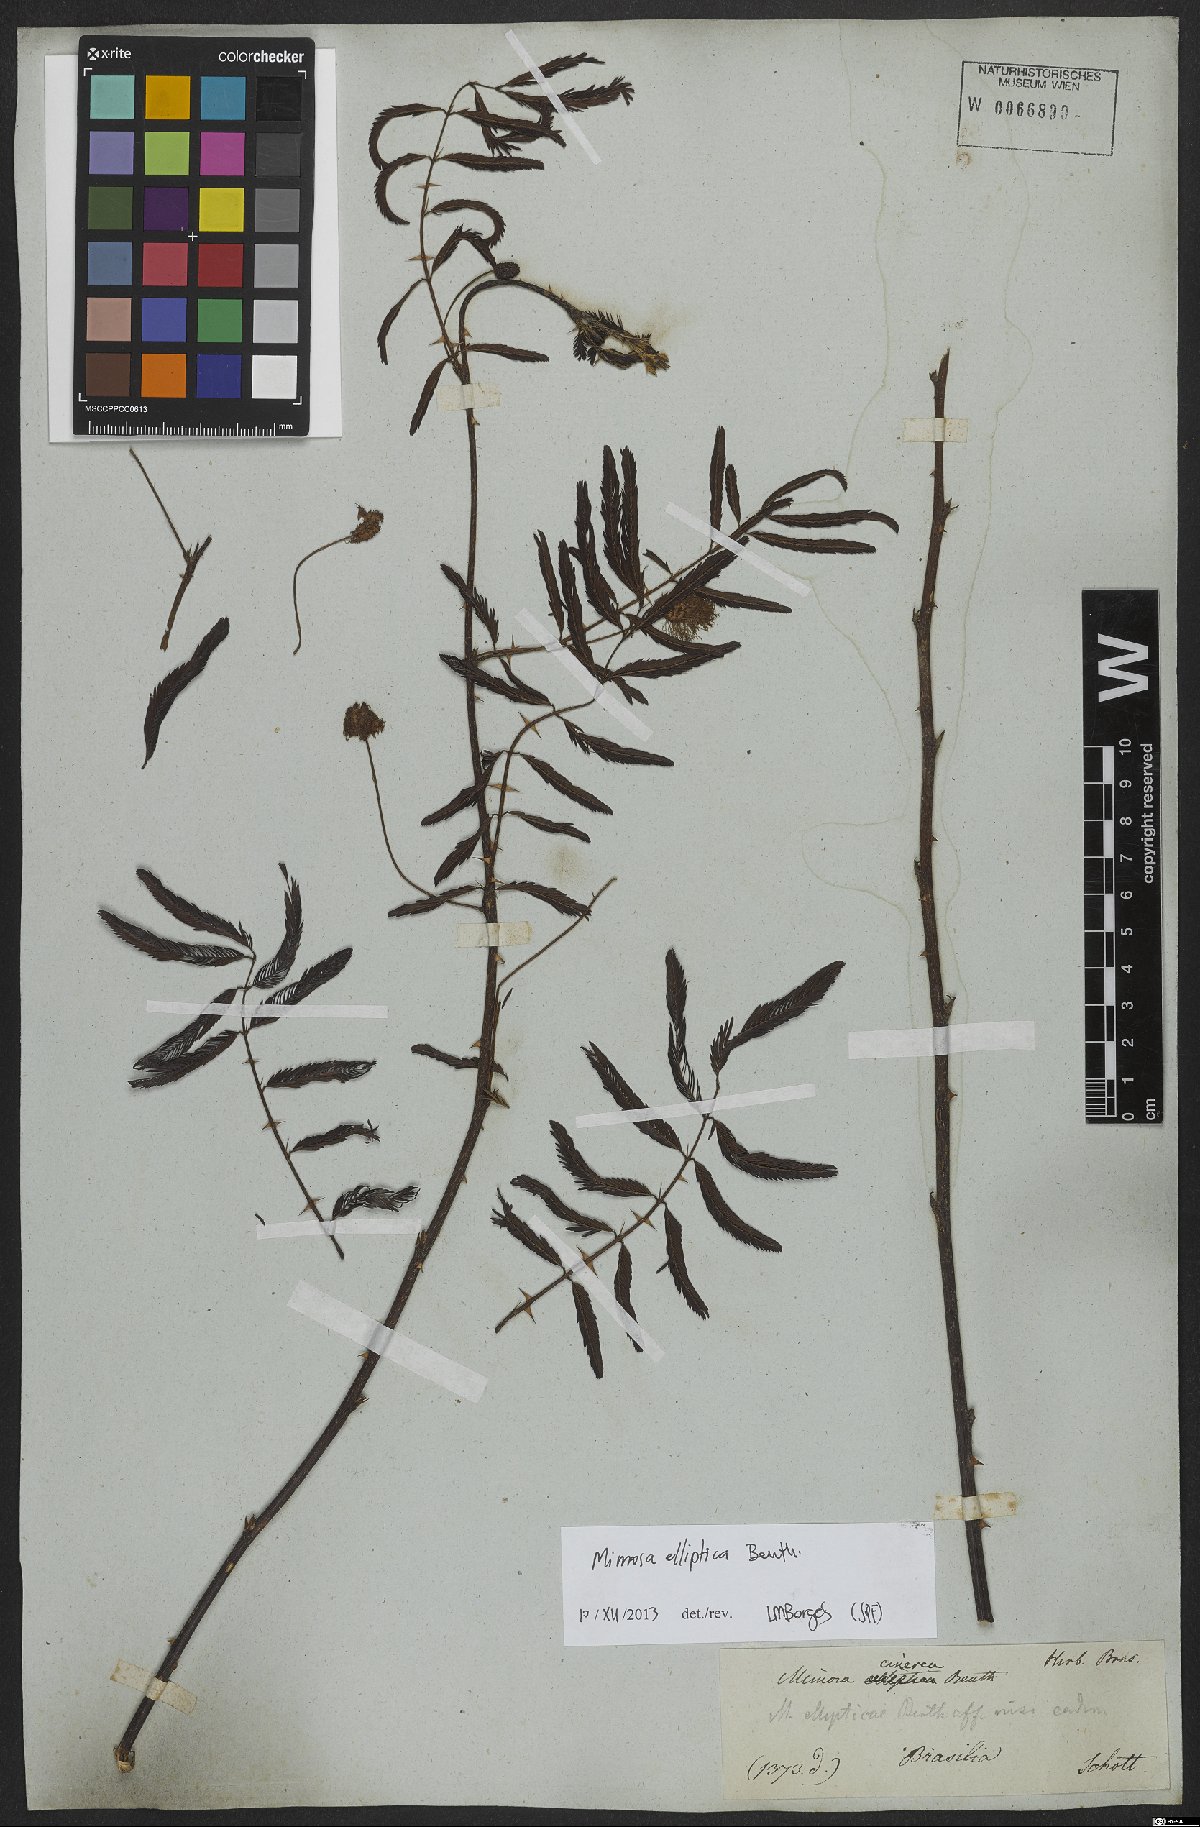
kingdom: Plantae
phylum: Tracheophyta
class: Magnoliopsida
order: Fabales
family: Fabaceae
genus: Mimosa
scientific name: Mimosa elliptica
